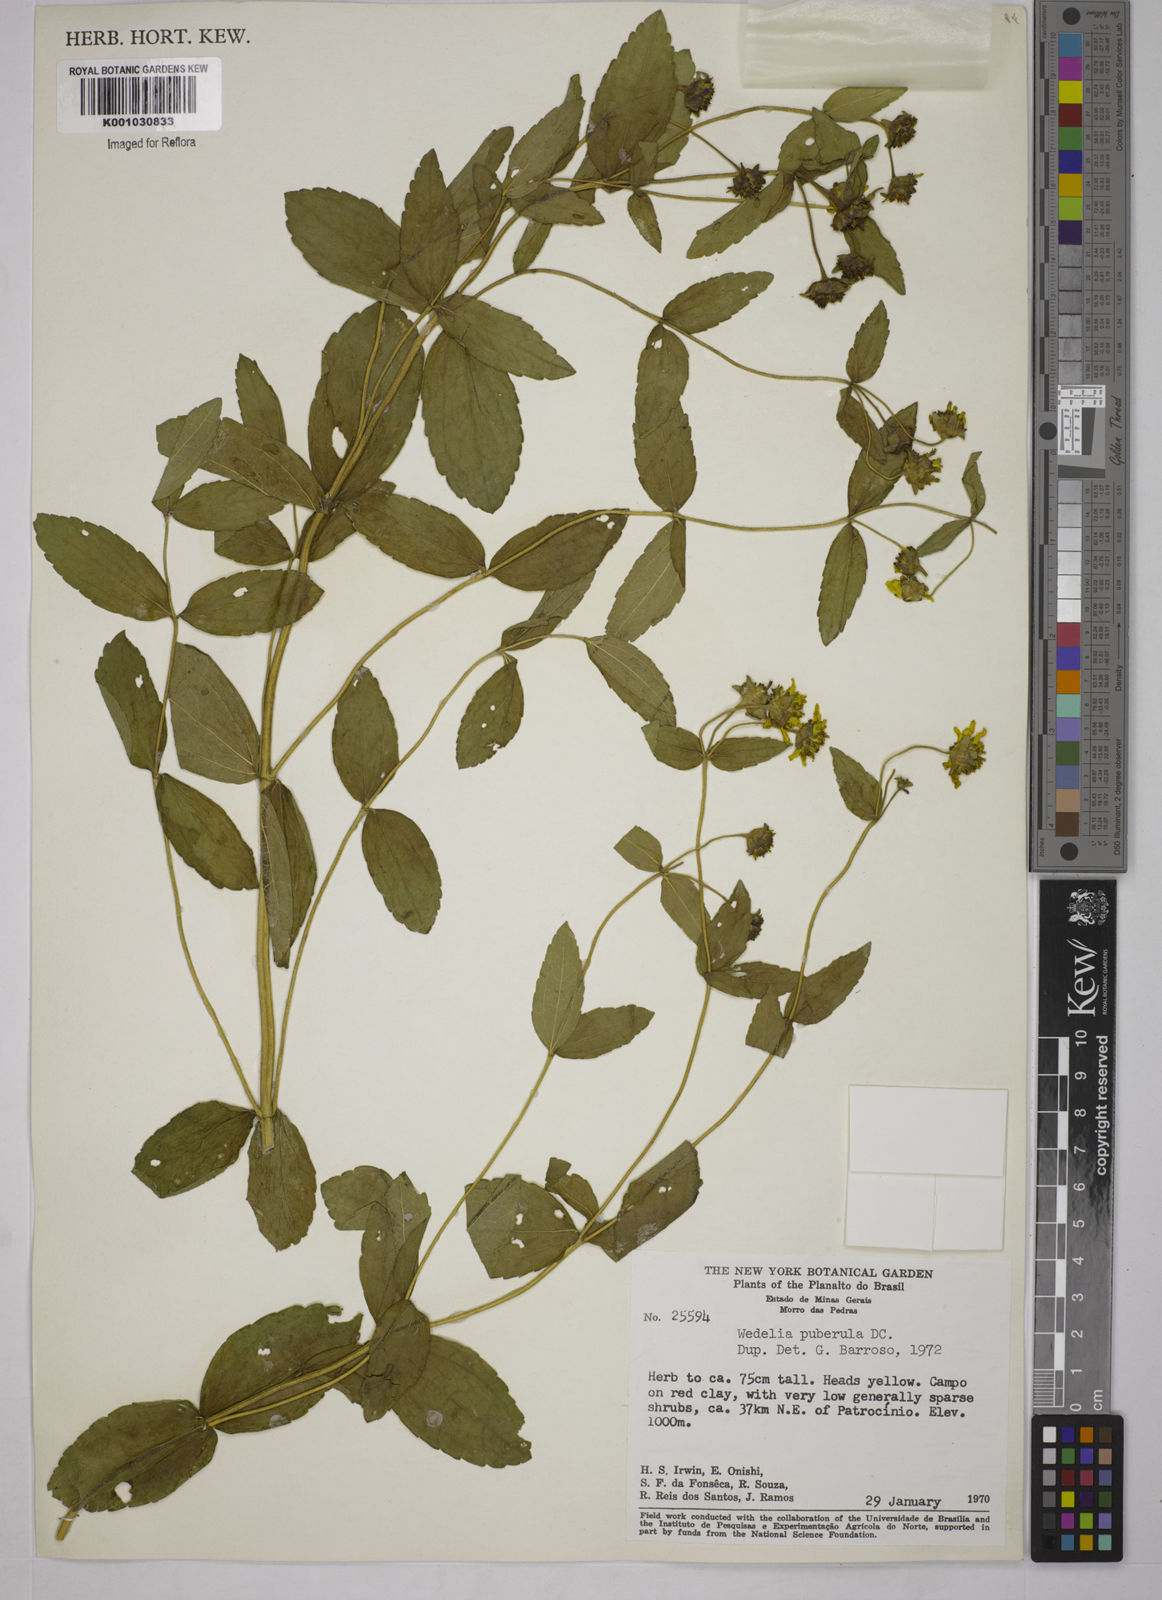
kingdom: Plantae
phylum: Tracheophyta
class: Magnoliopsida
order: Asterales
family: Asteraceae
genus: Wedelia
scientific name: Wedelia puberula
